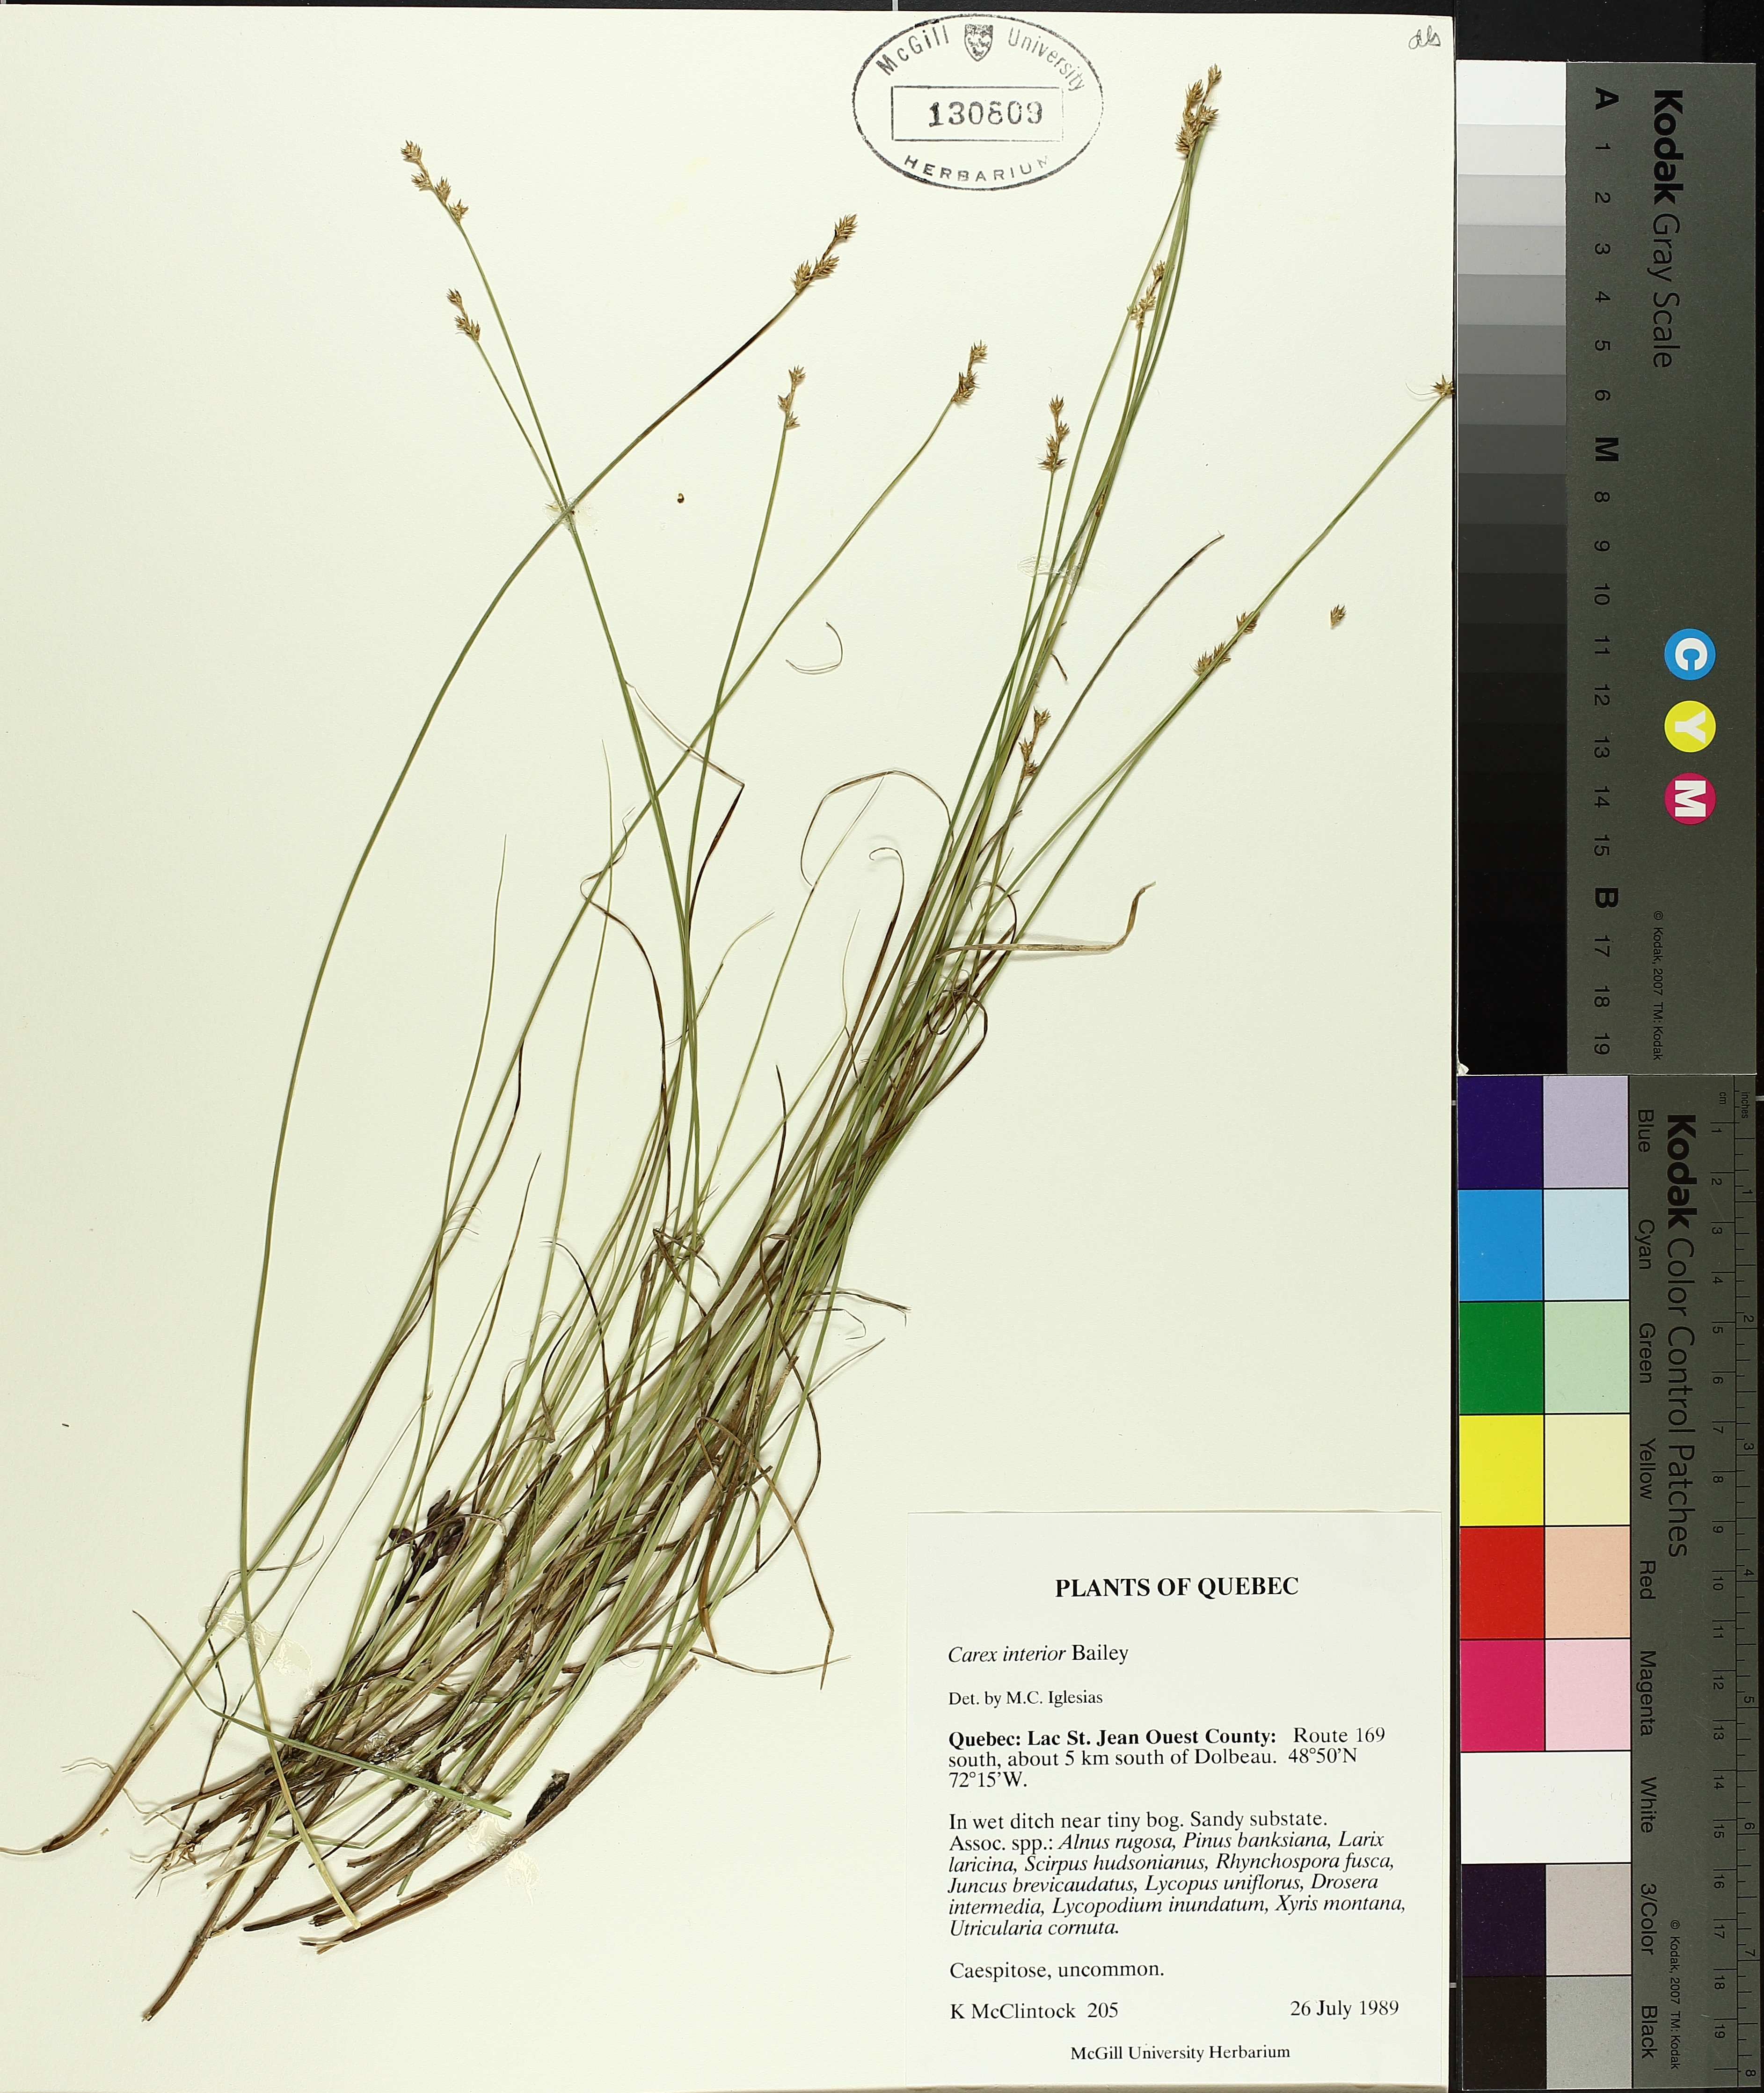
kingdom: Plantae
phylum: Tracheophyta
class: Liliopsida
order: Poales
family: Cyperaceae
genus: Carex
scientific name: Carex interior
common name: Inland sedge
